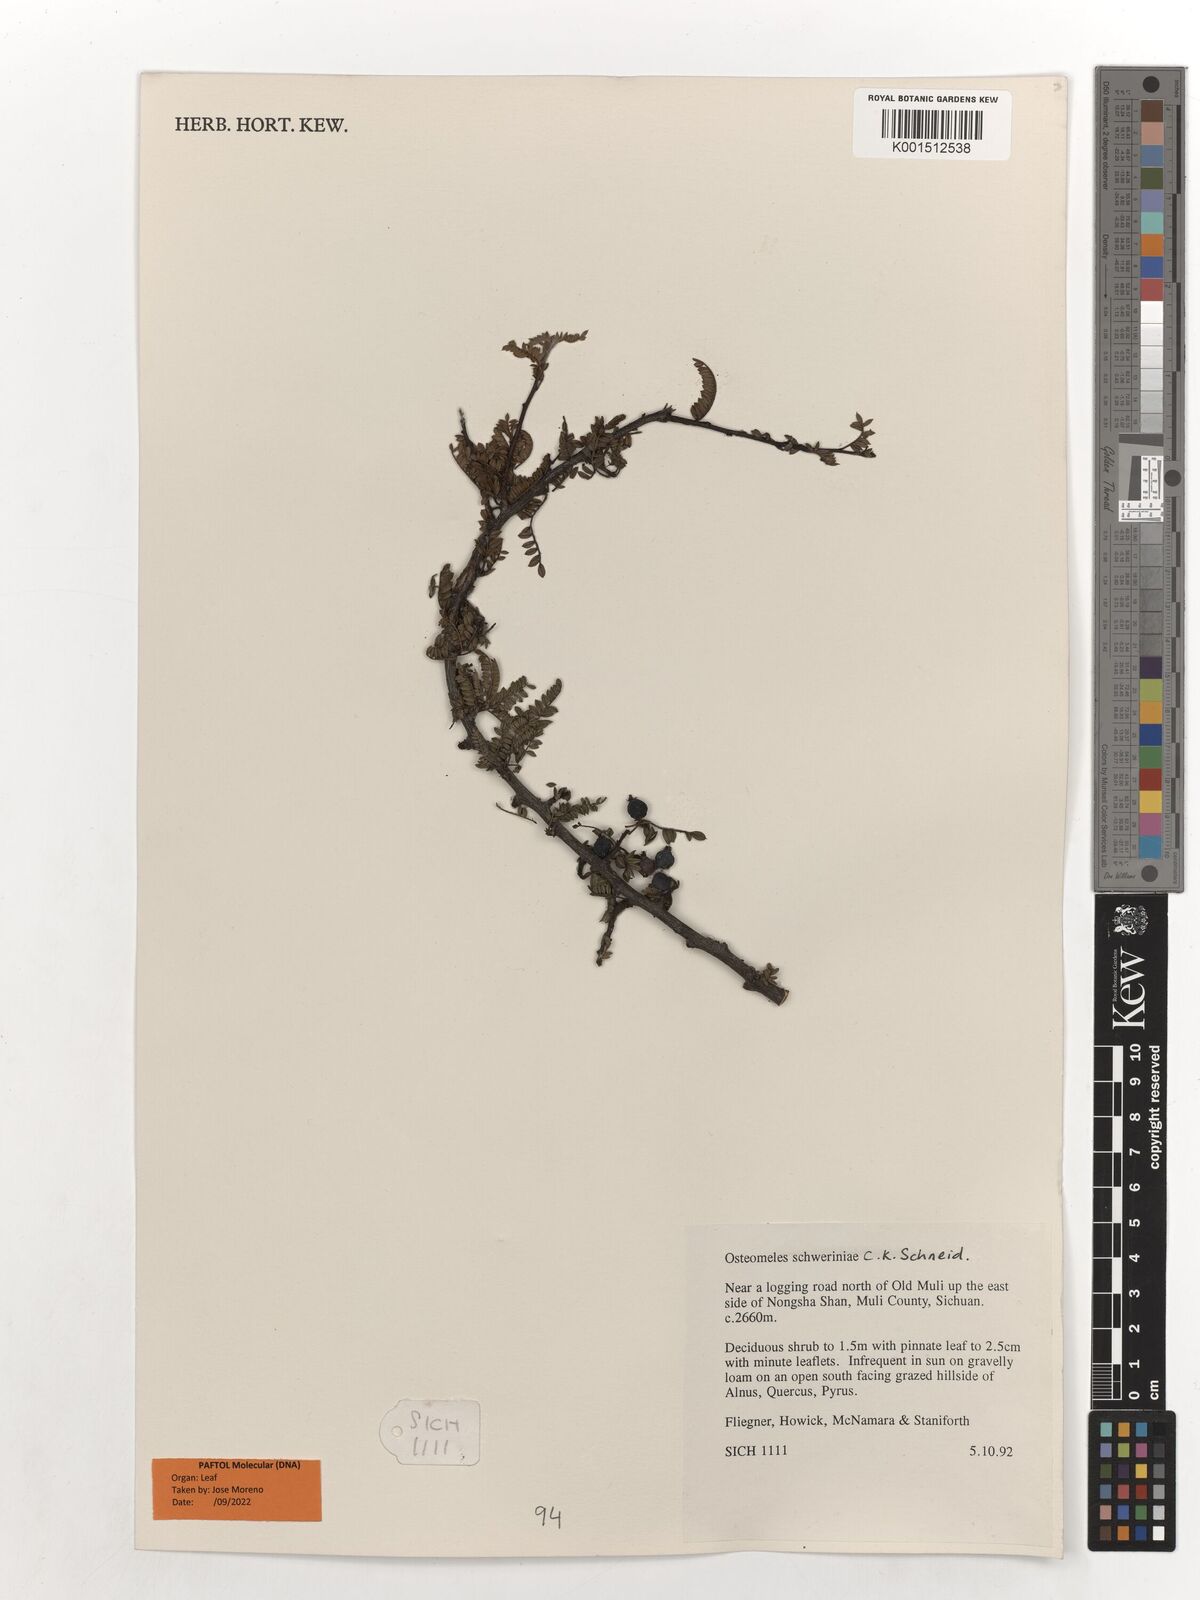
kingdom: Plantae
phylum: Tracheophyta
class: Magnoliopsida
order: Rosales
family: Rosaceae
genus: Osteomeles
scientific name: Osteomeles schwerinae
